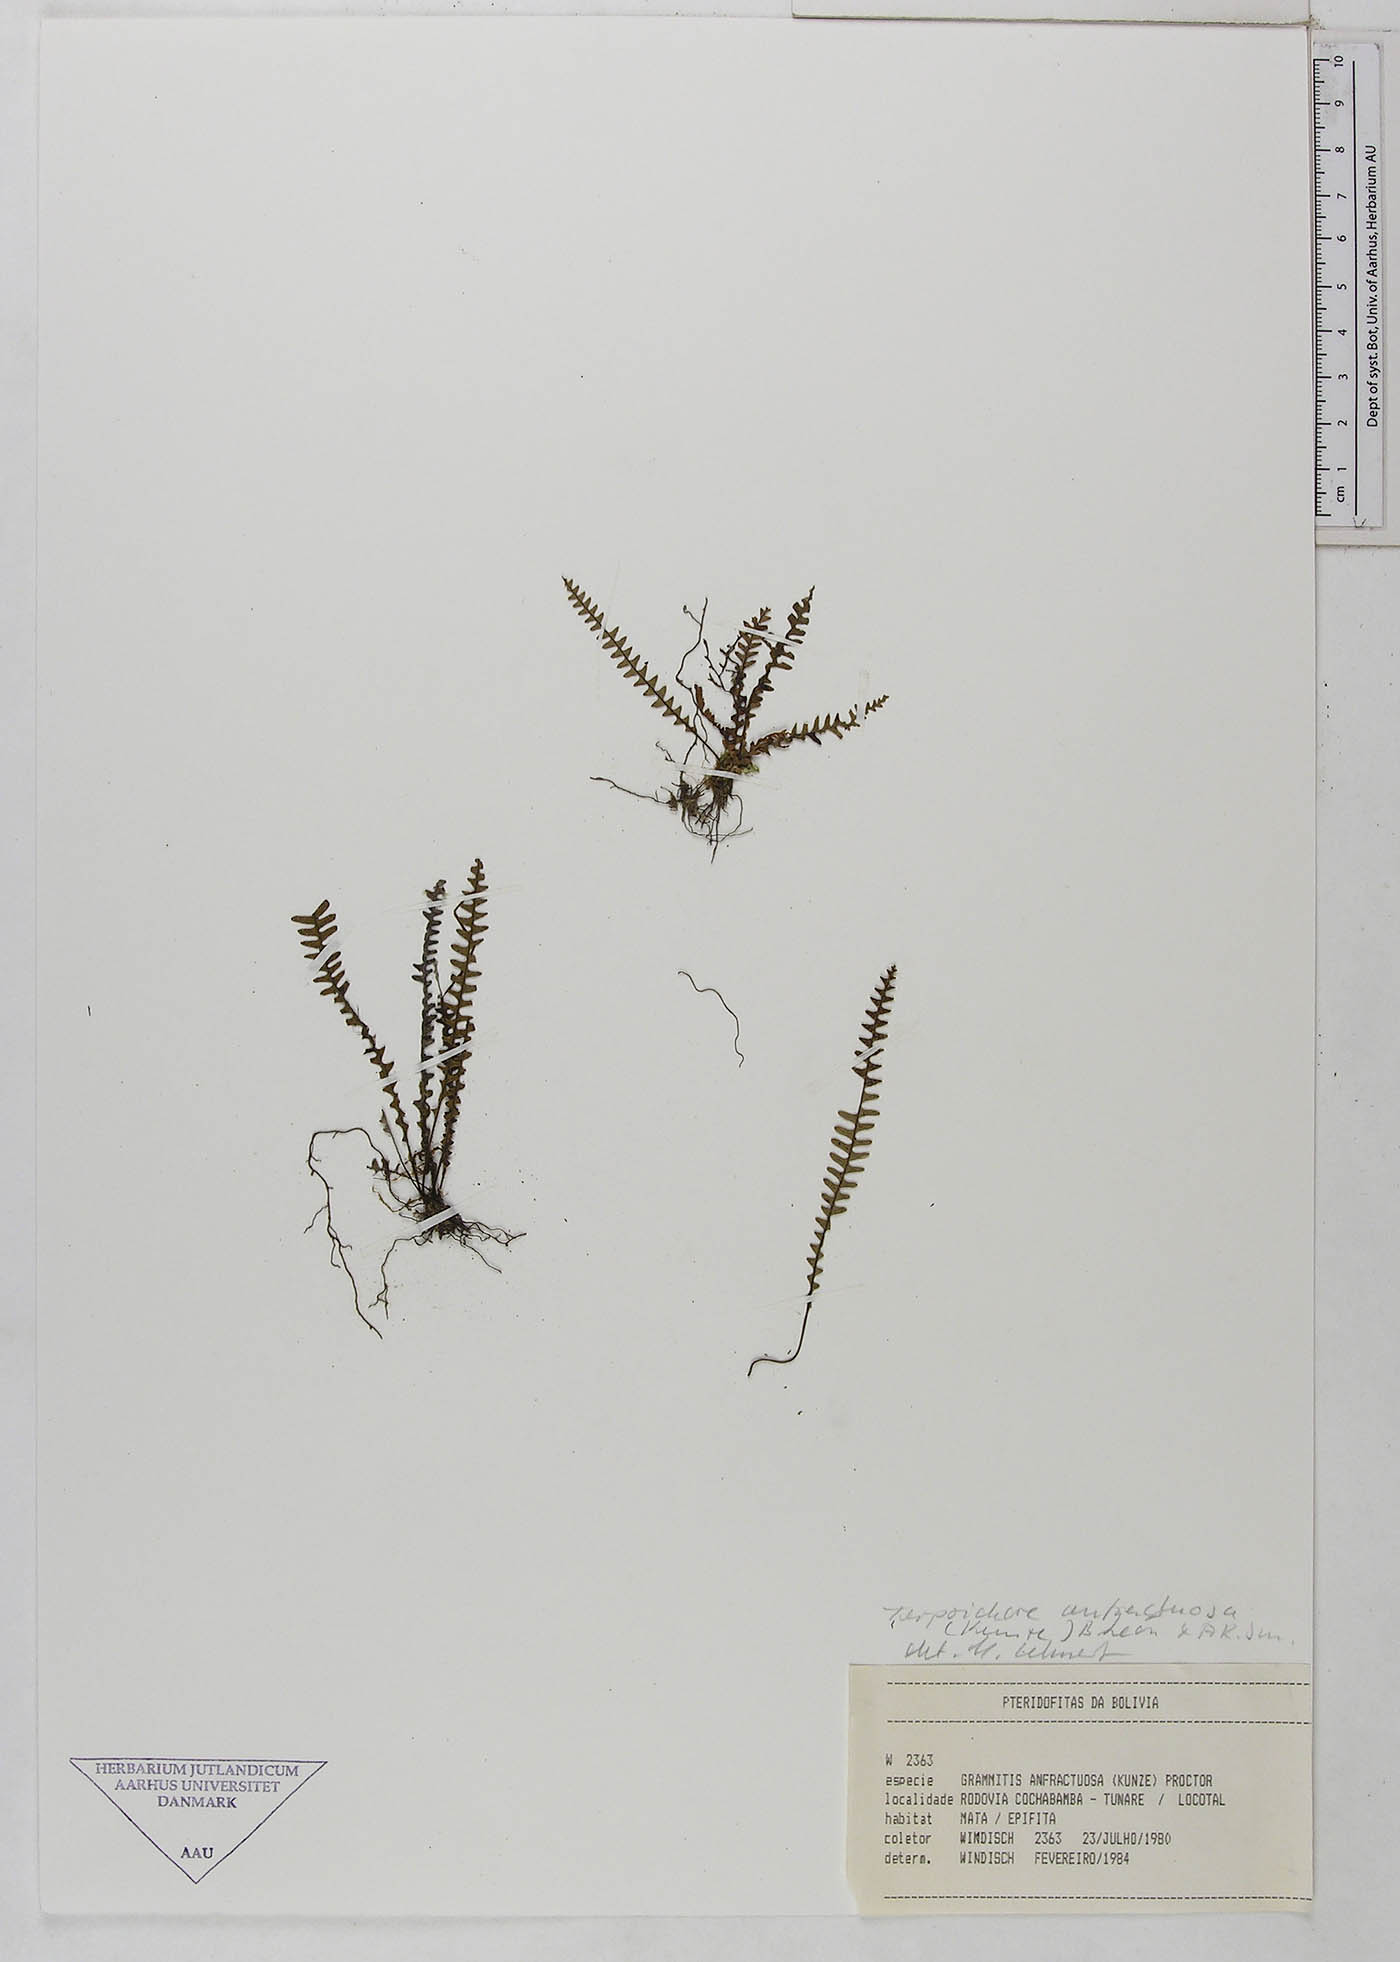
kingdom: Plantae
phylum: Tracheophyta
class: Polypodiopsida
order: Polypodiales
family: Polypodiaceae
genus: Ascogrammitis
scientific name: Ascogrammitis anfractuosa
